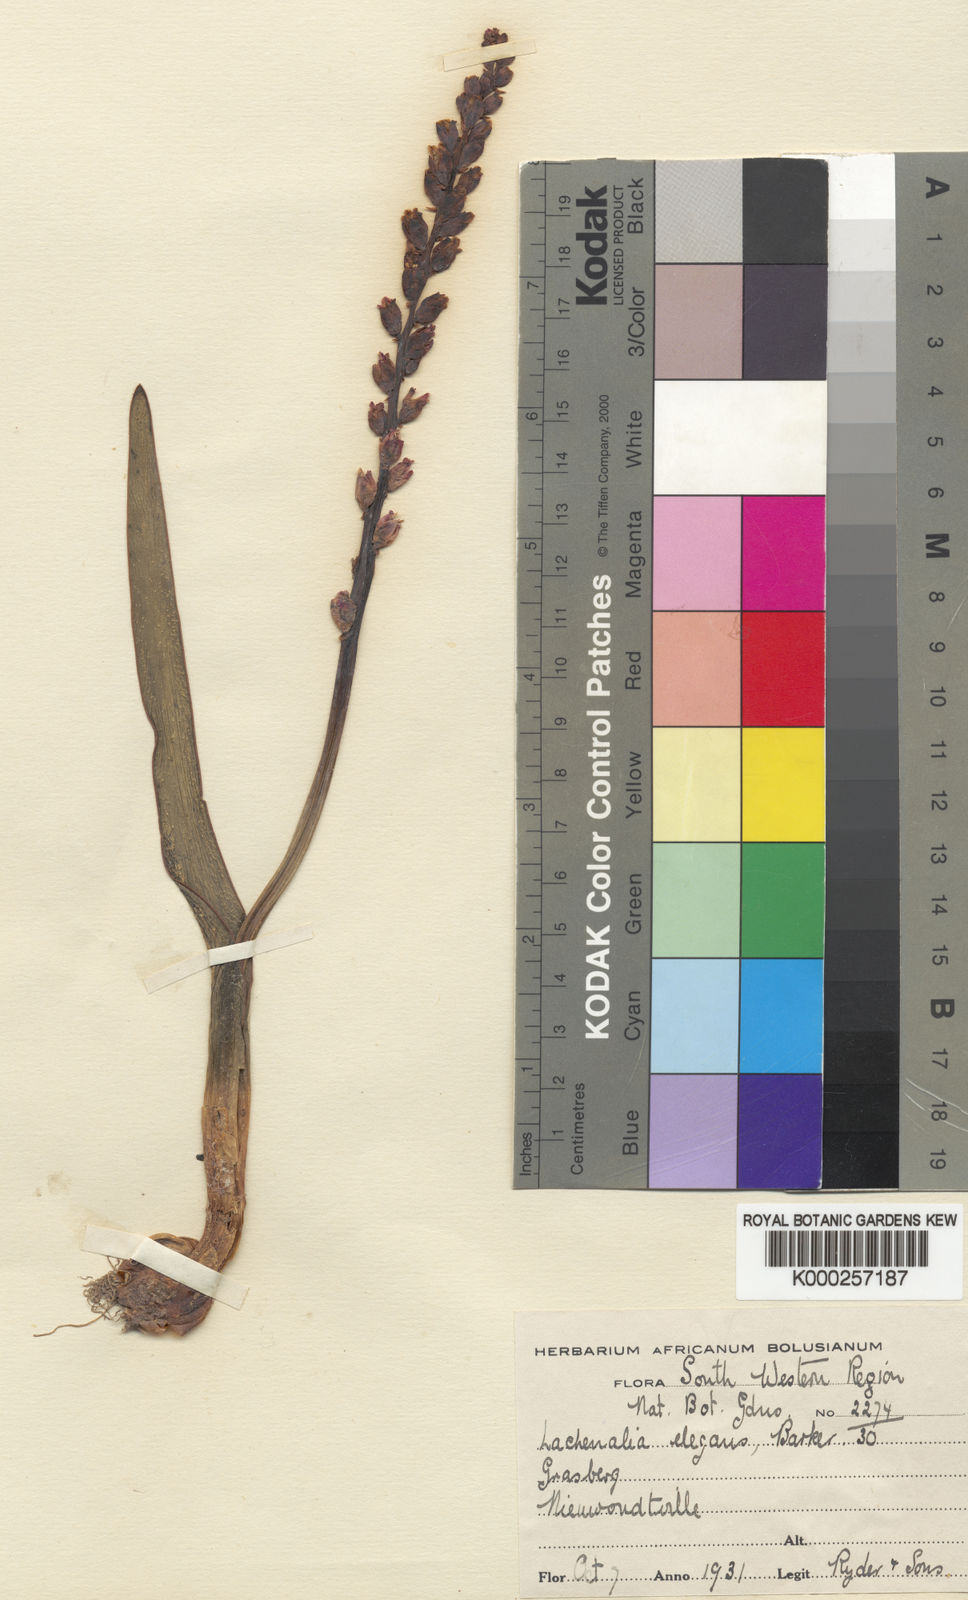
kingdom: Plantae
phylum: Tracheophyta
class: Liliopsida
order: Asparagales
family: Asparagaceae
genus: Lachenalia
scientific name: Lachenalia elegans
